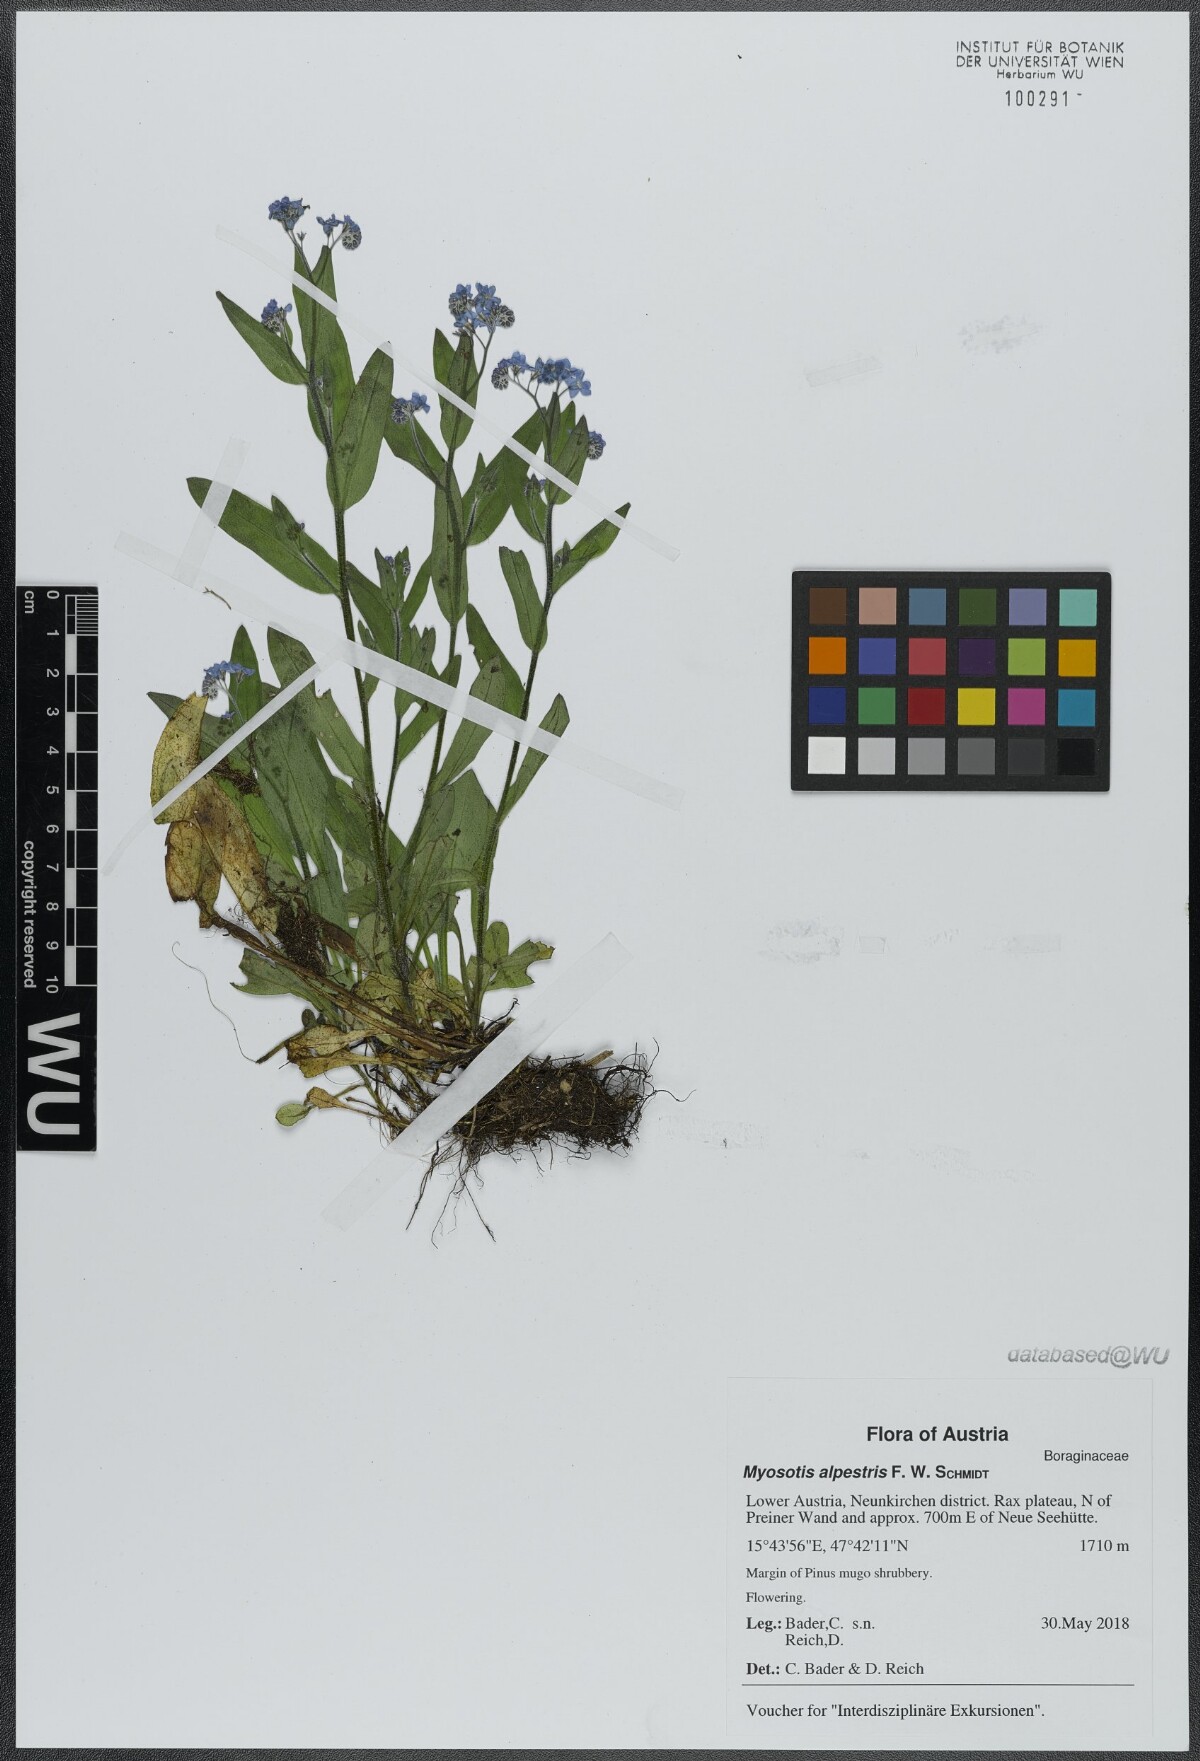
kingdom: Plantae
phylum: Tracheophyta
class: Magnoliopsida
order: Boraginales
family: Boraginaceae
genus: Myosotis
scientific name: Myosotis alpestris
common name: Alpine forget-me-not
